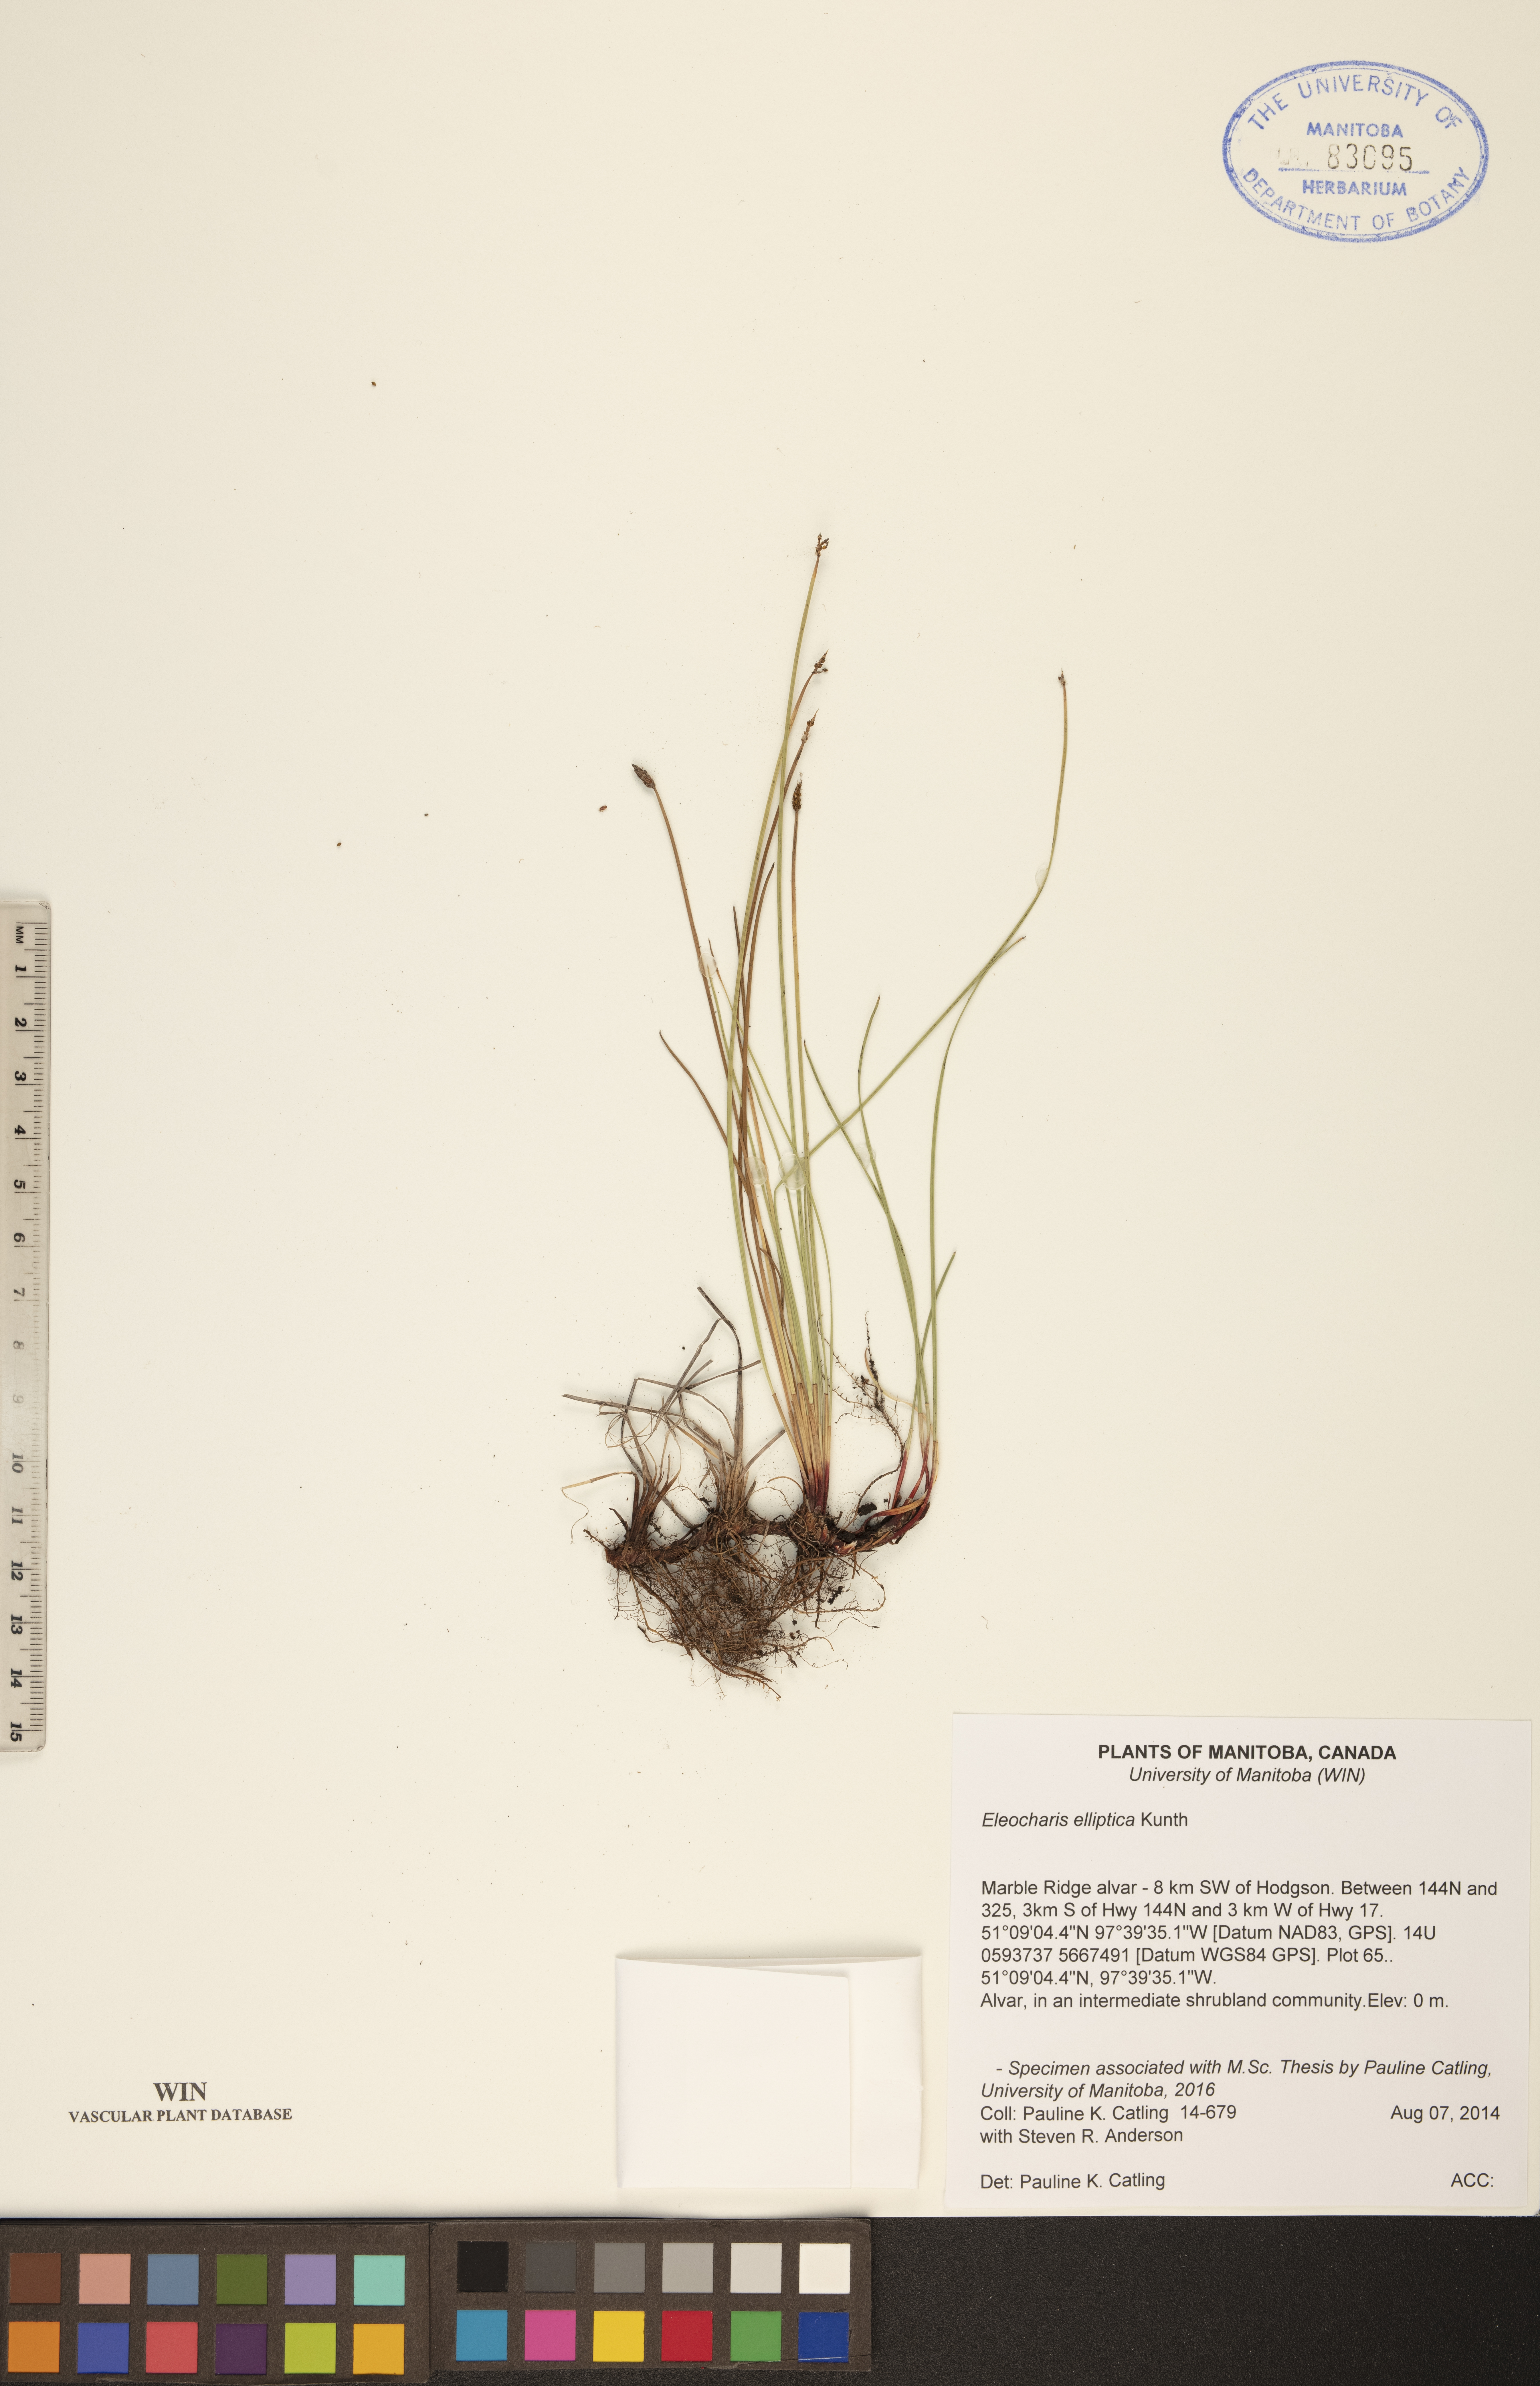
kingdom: Plantae
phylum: Tracheophyta
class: Liliopsida
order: Poales
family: Cyperaceae
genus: Eleocharis
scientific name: Eleocharis elliptica
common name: Capitate spikerush
